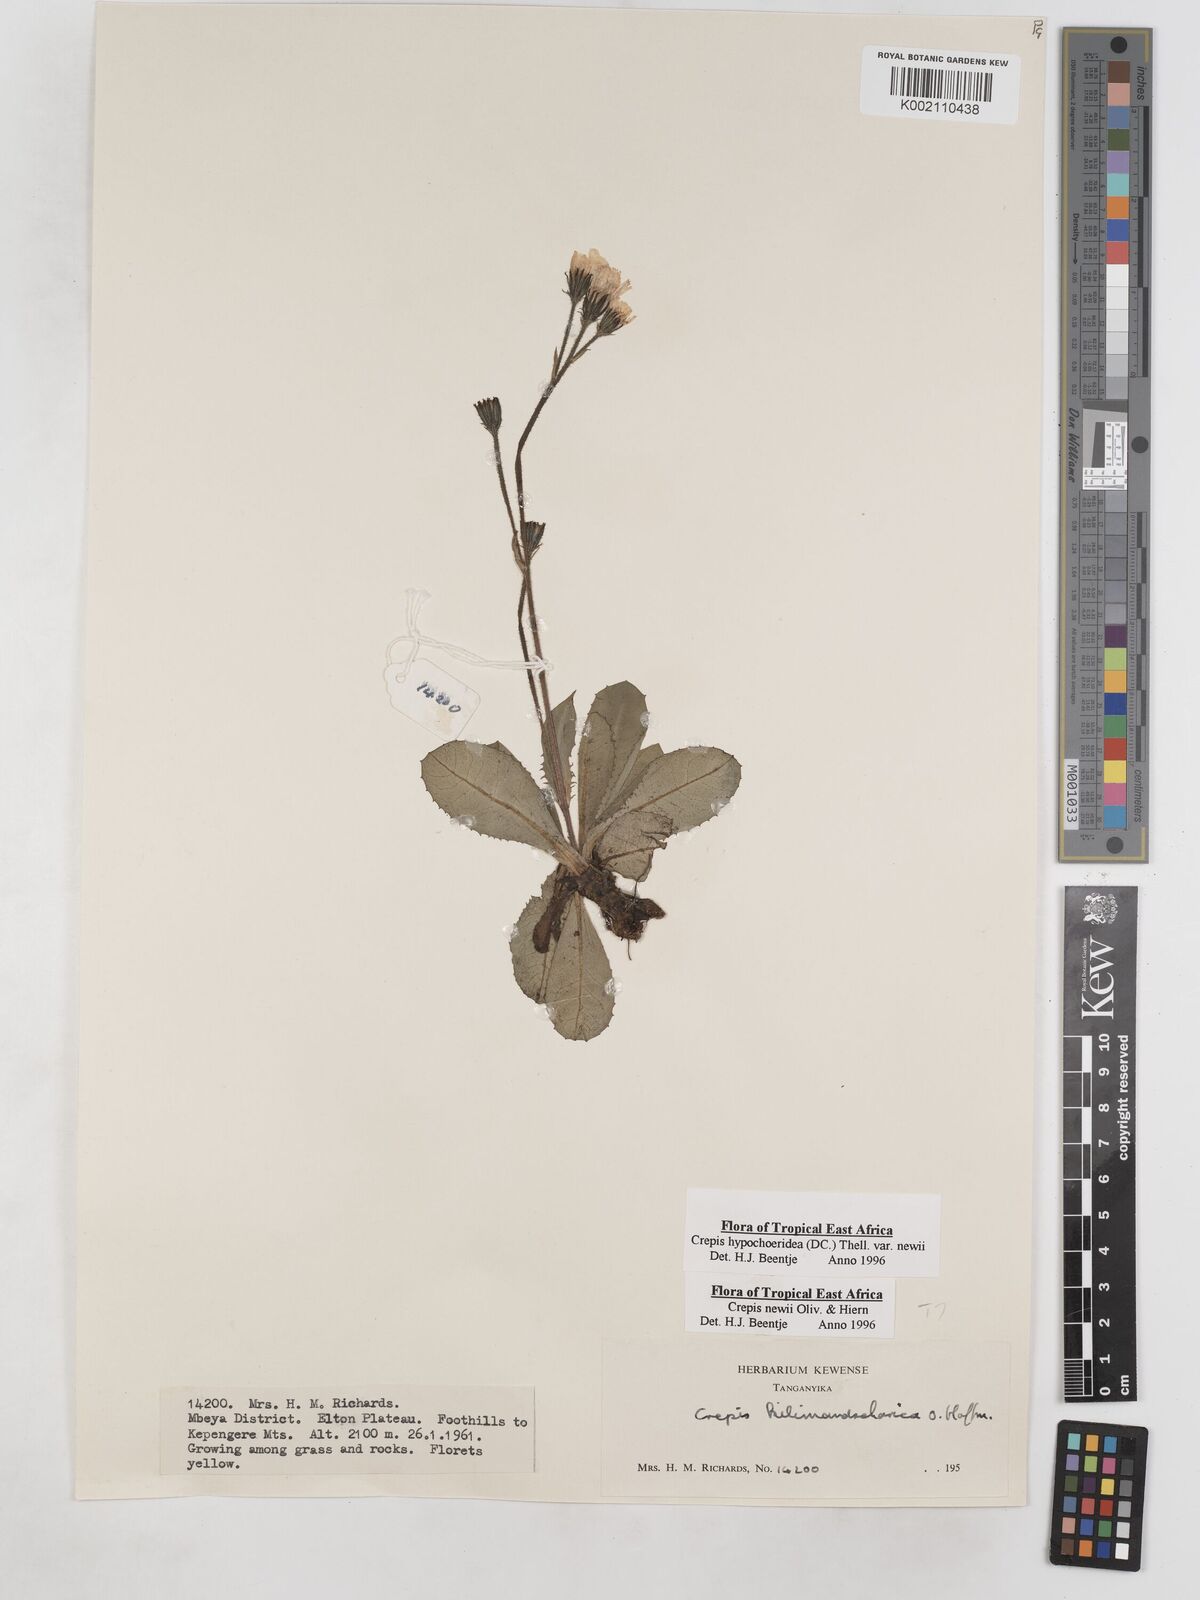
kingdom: Plantae
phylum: Tracheophyta
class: Magnoliopsida
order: Asterales
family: Asteraceae
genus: Crepis
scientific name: Crepis hypochoeridea
